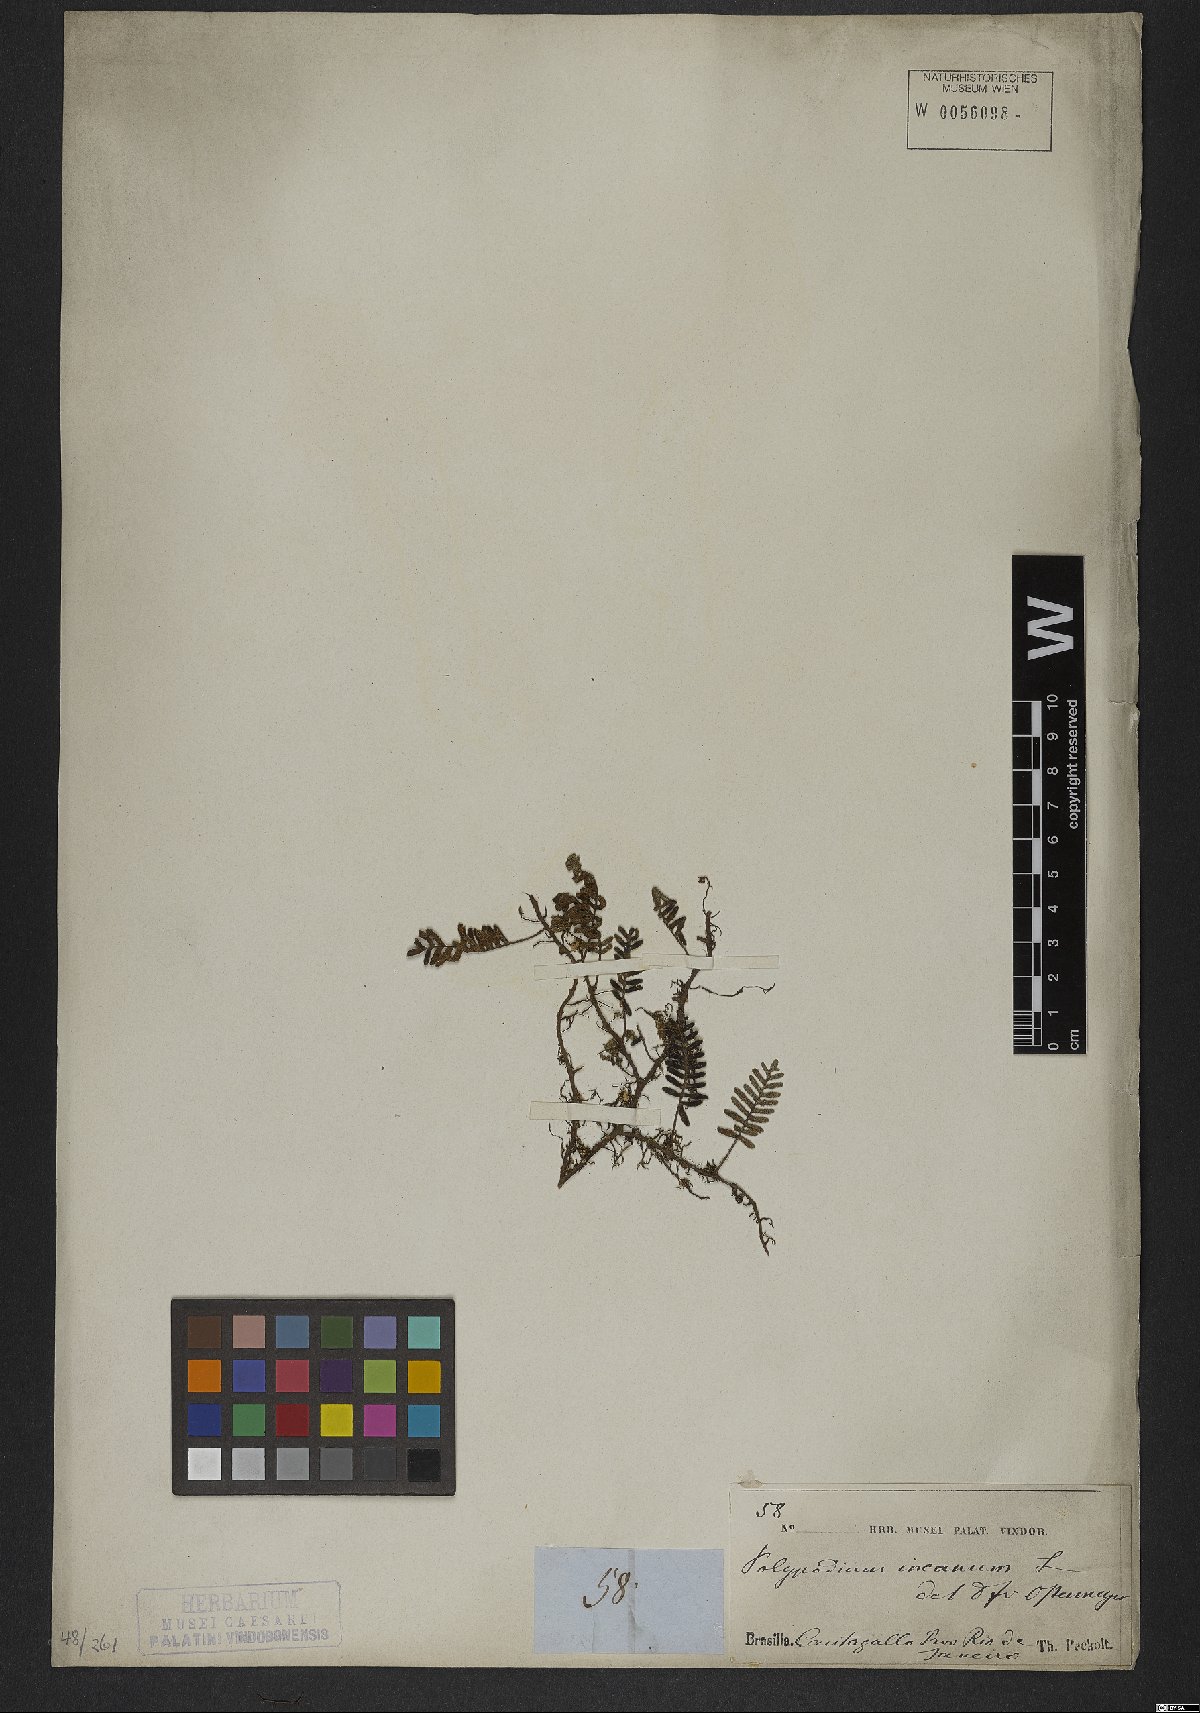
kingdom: Plantae
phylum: Tracheophyta
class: Polypodiopsida
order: Polypodiales
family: Polypodiaceae
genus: Pleopeltis
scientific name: Pleopeltis polypodioides
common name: Resurrection fern
